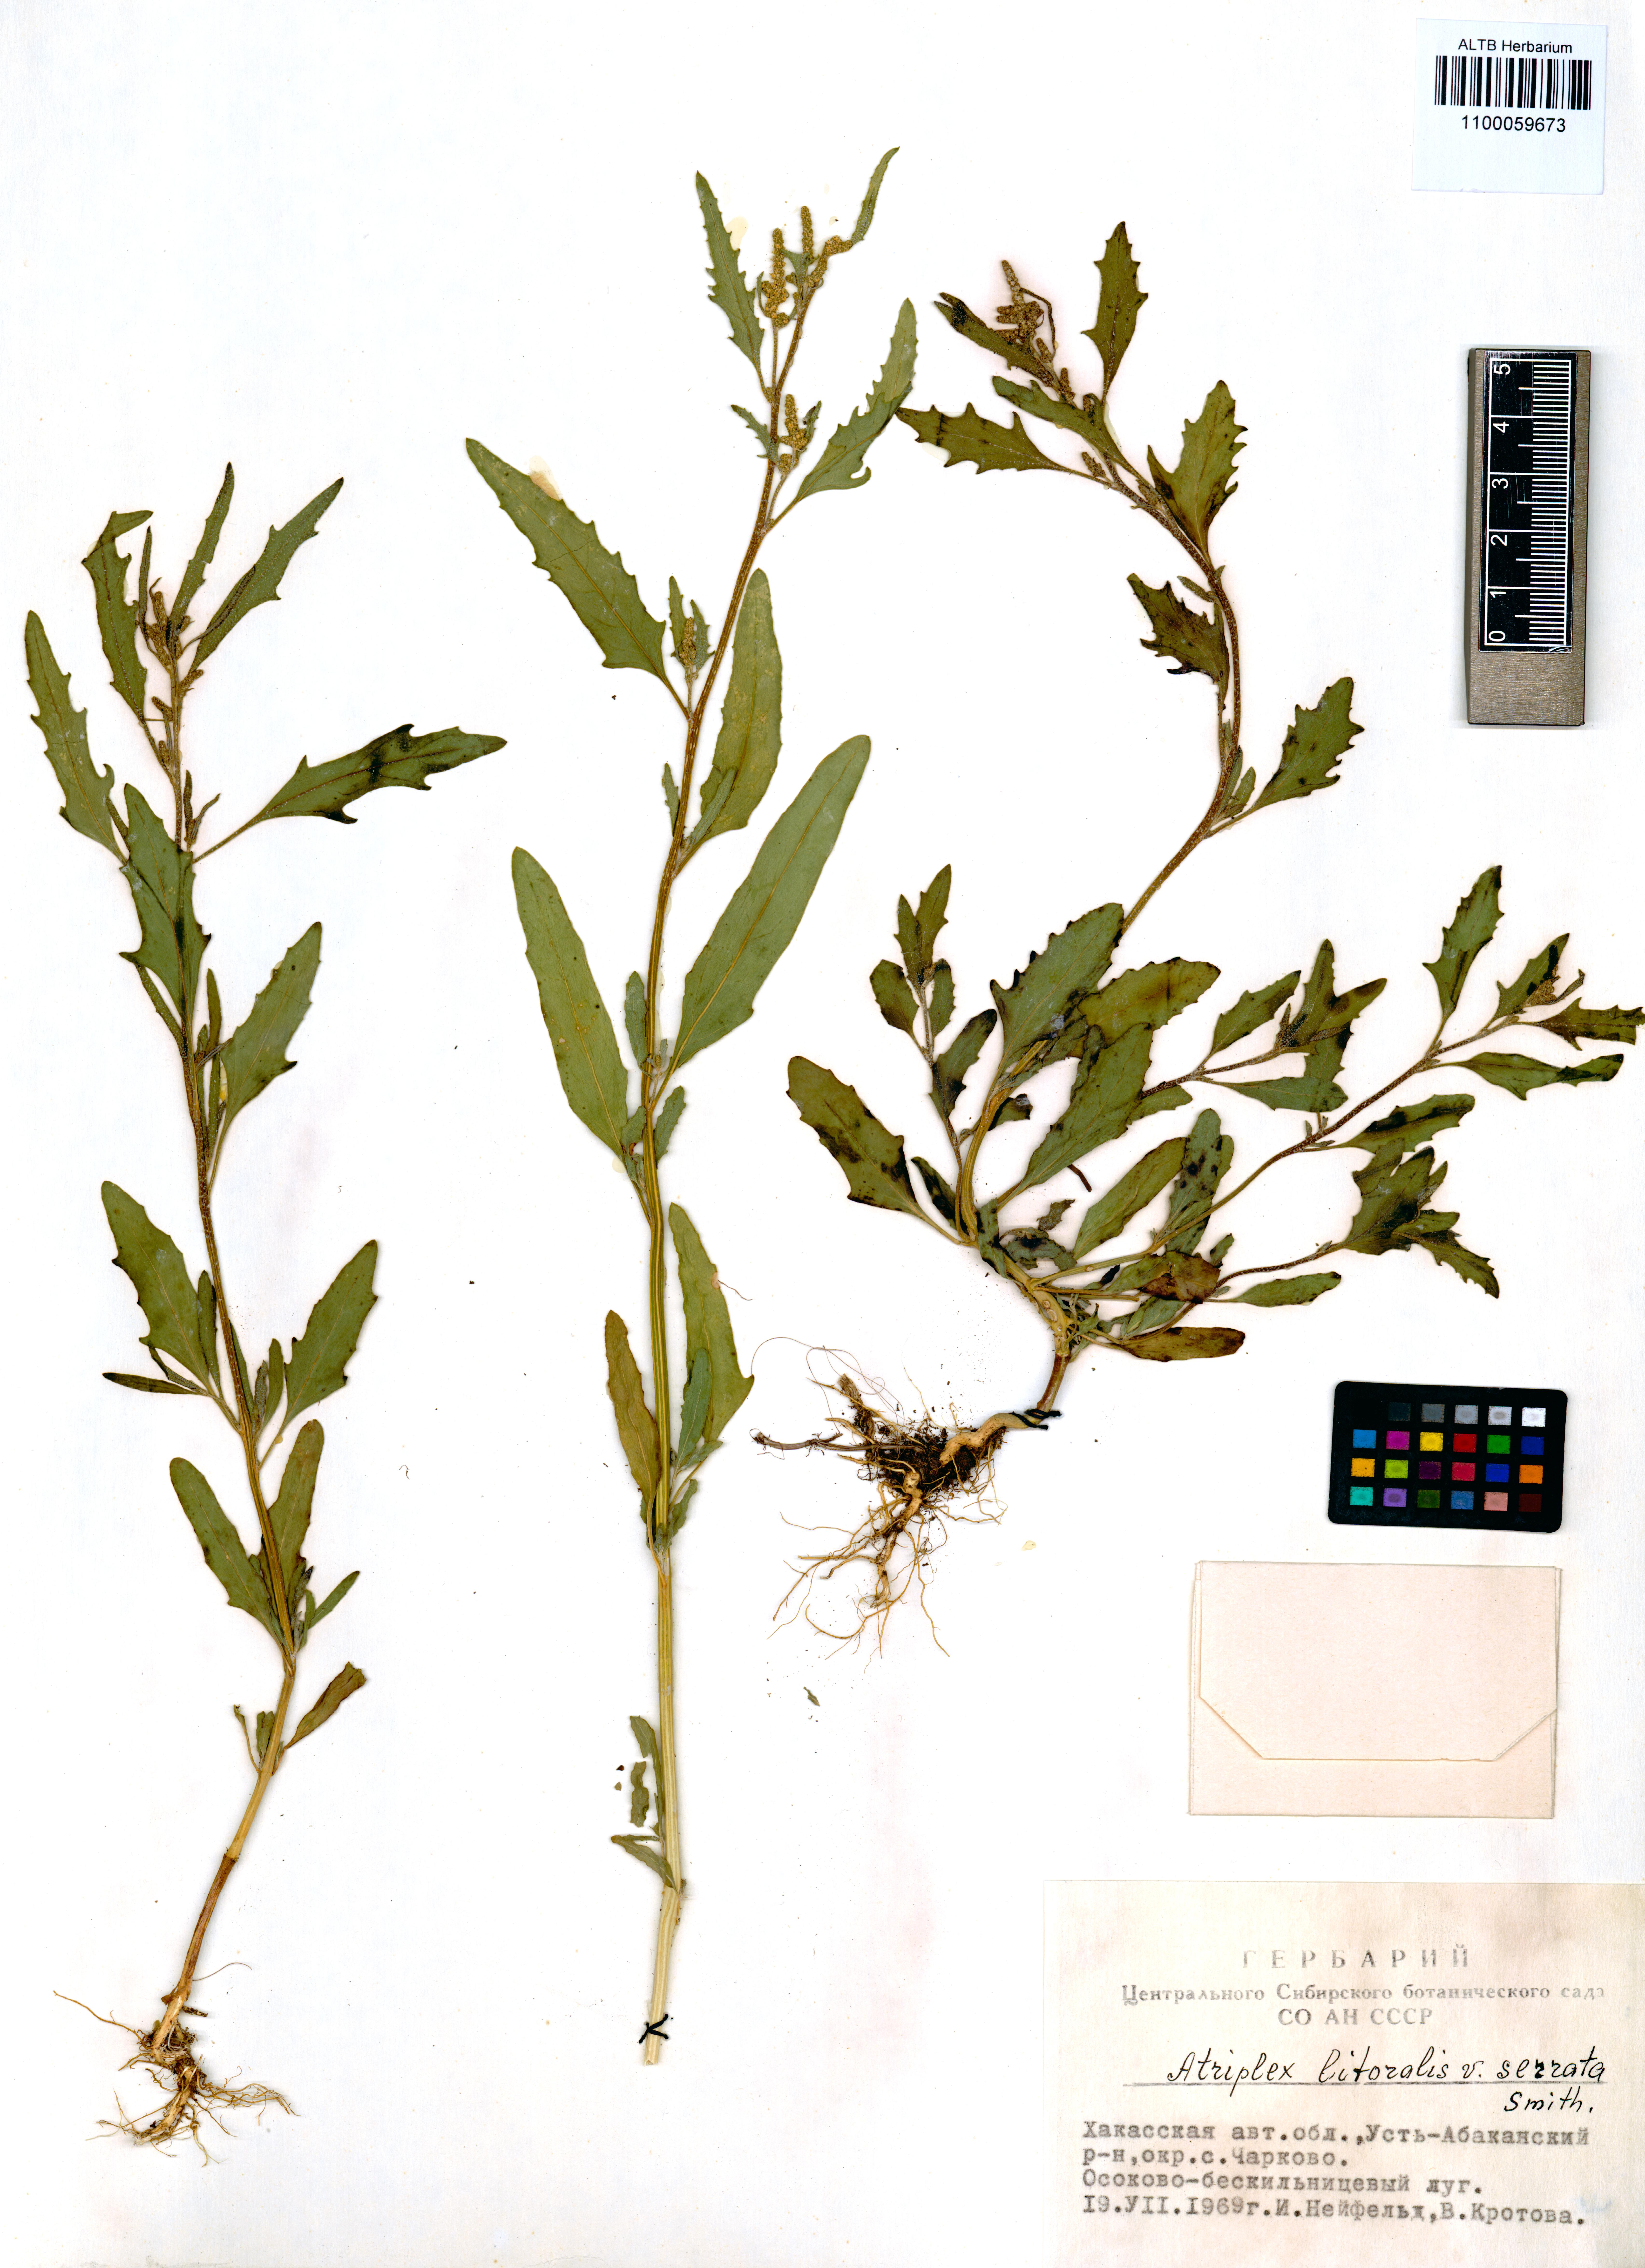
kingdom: Plantae
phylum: Tracheophyta
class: Magnoliopsida
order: Caryophyllales
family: Amaranthaceae
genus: Atriplex
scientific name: Atriplex littoralis
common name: Grass-leaved orache
